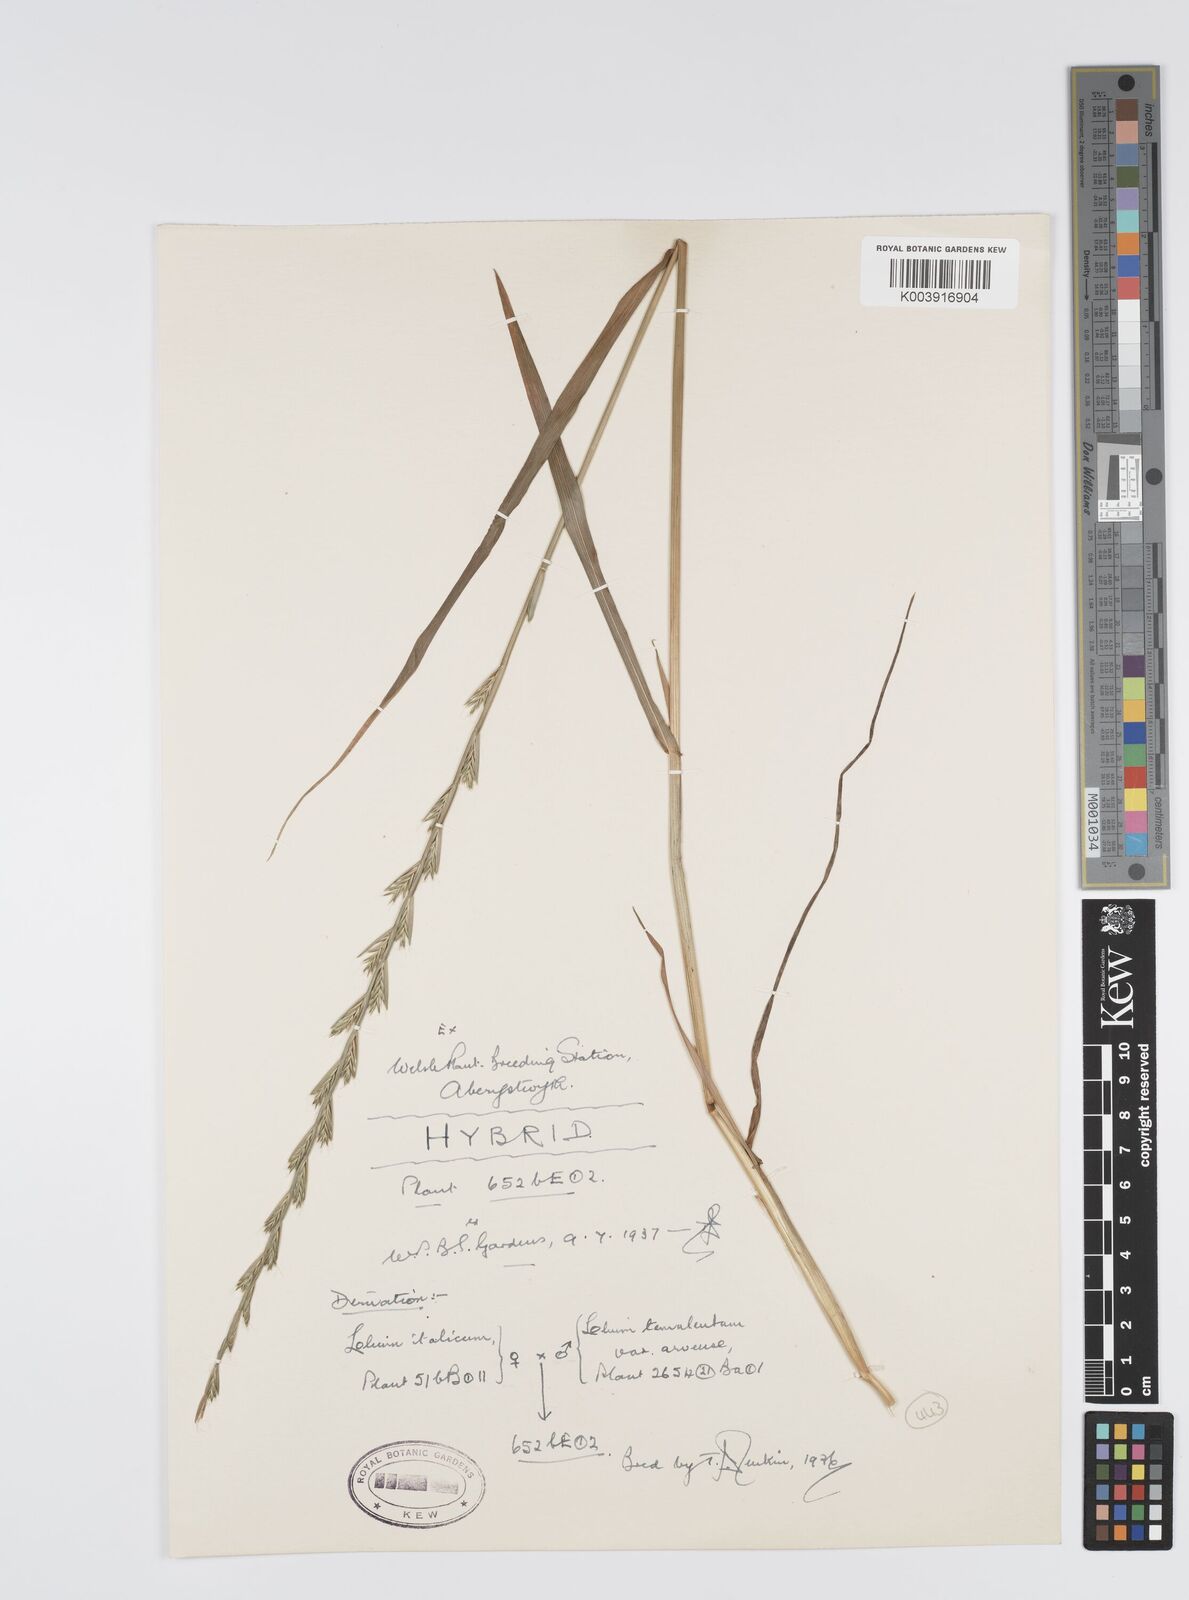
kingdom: Plantae
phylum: Tracheophyta
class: Liliopsida
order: Poales
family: Poaceae
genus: Lolium
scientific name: Lolium multiflorum
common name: Annual ryegrass
